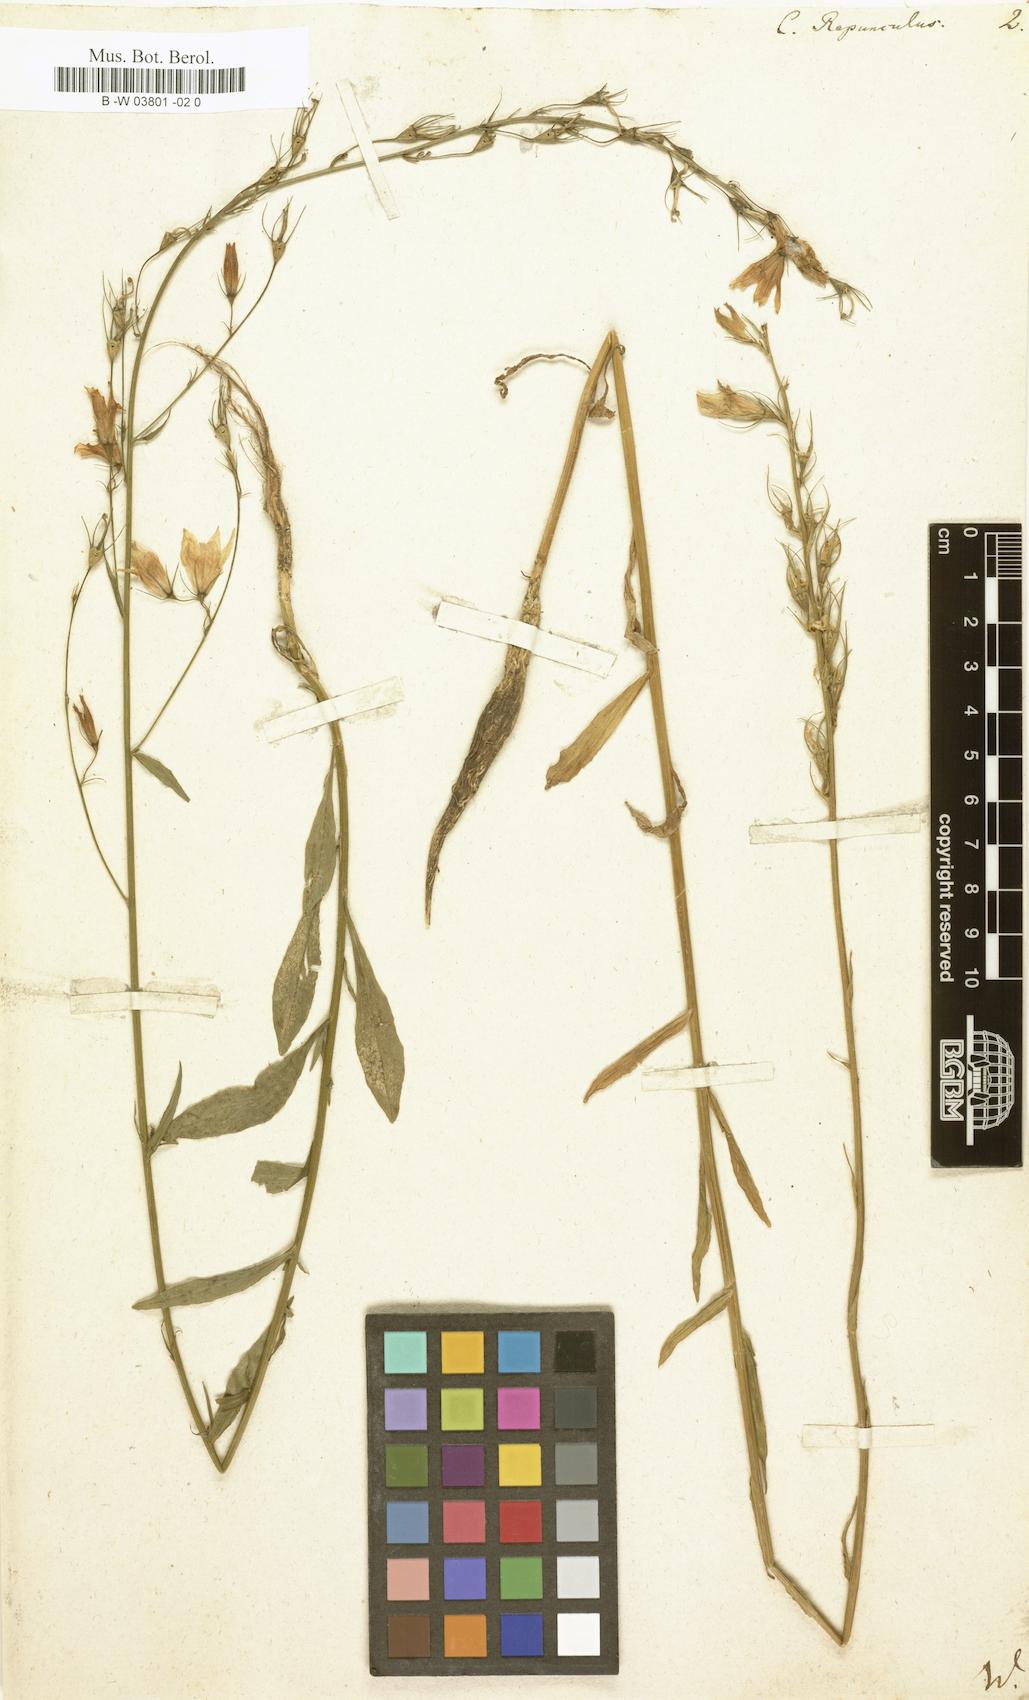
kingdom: Plantae
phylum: Tracheophyta
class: Magnoliopsida
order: Asterales
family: Campanulaceae
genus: Campanula
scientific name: Campanula rapunculus
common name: Rampion bellflower
